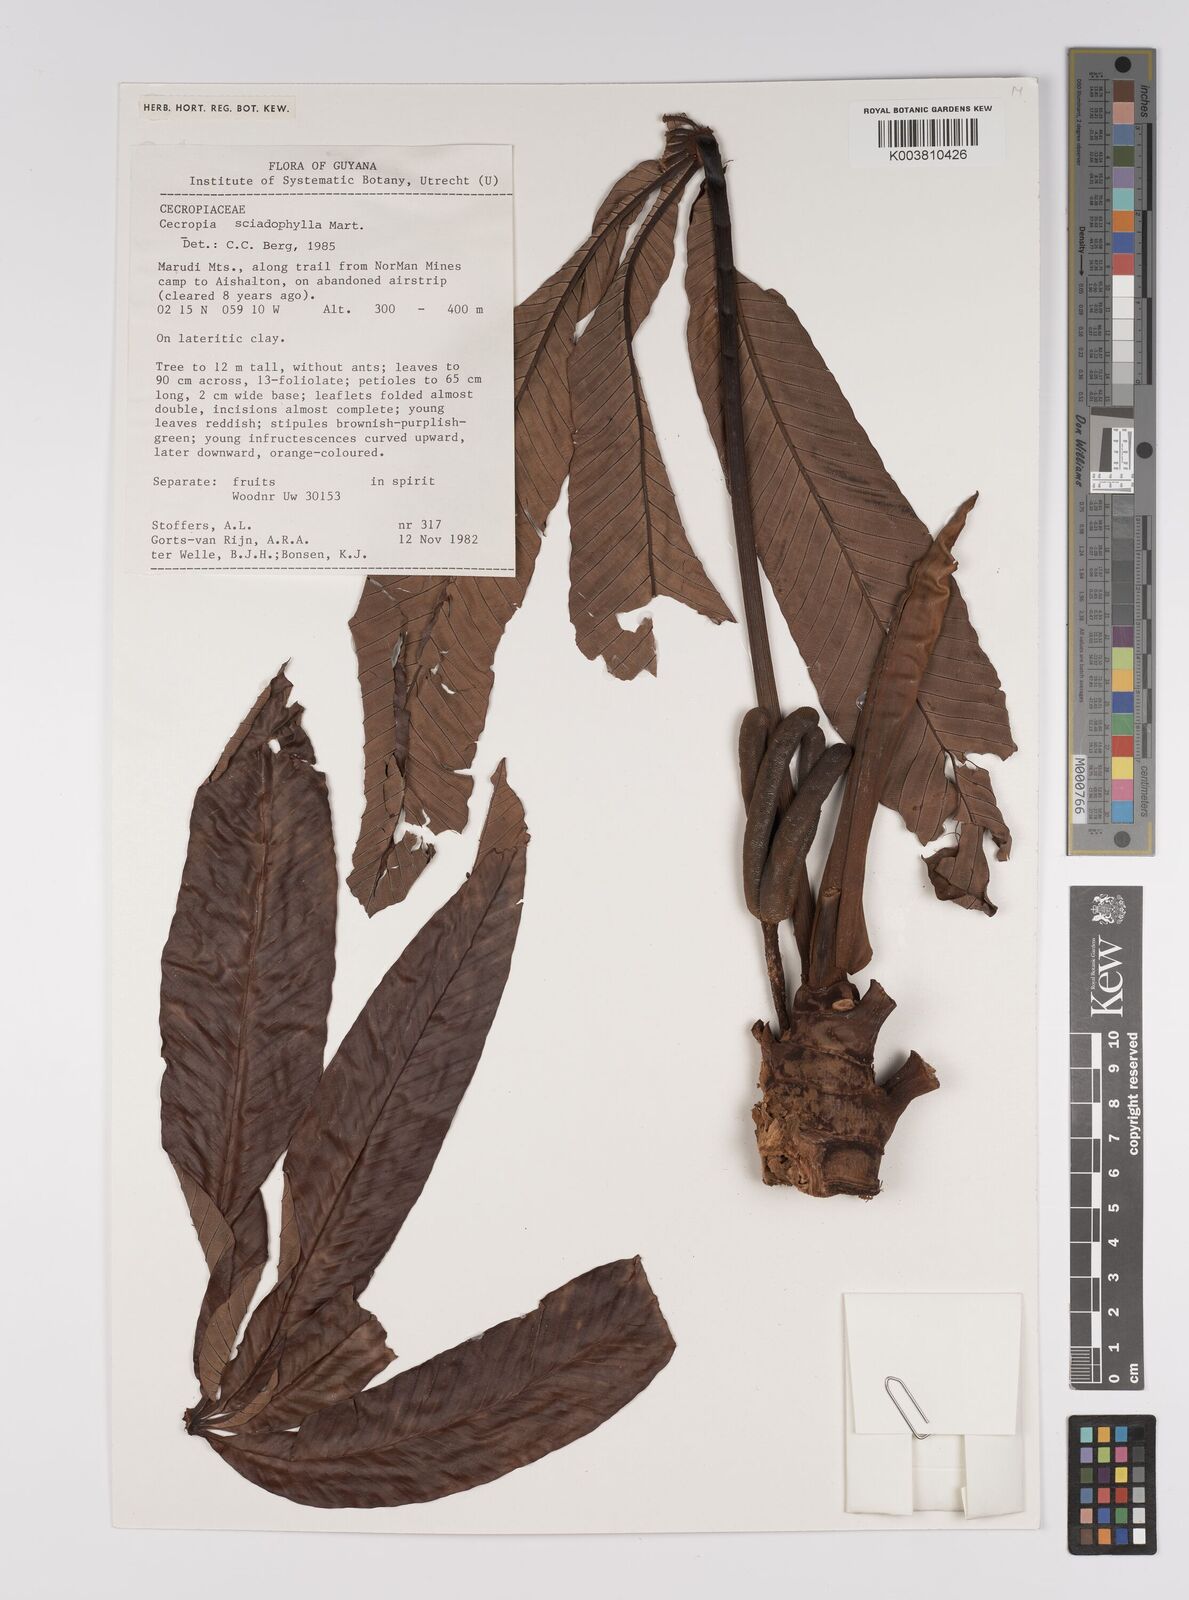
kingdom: Plantae
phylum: Tracheophyta
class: Magnoliopsida
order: Rosales
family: Urticaceae
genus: Cecropia
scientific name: Cecropia sciadophylla
